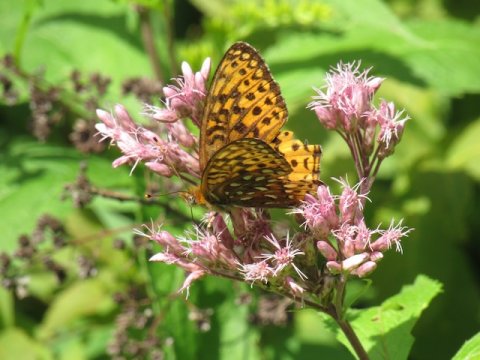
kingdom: Animalia
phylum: Arthropoda
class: Insecta
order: Lepidoptera
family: Nymphalidae
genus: Speyeria
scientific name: Speyeria atlantis
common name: Atlantis Fritillary
